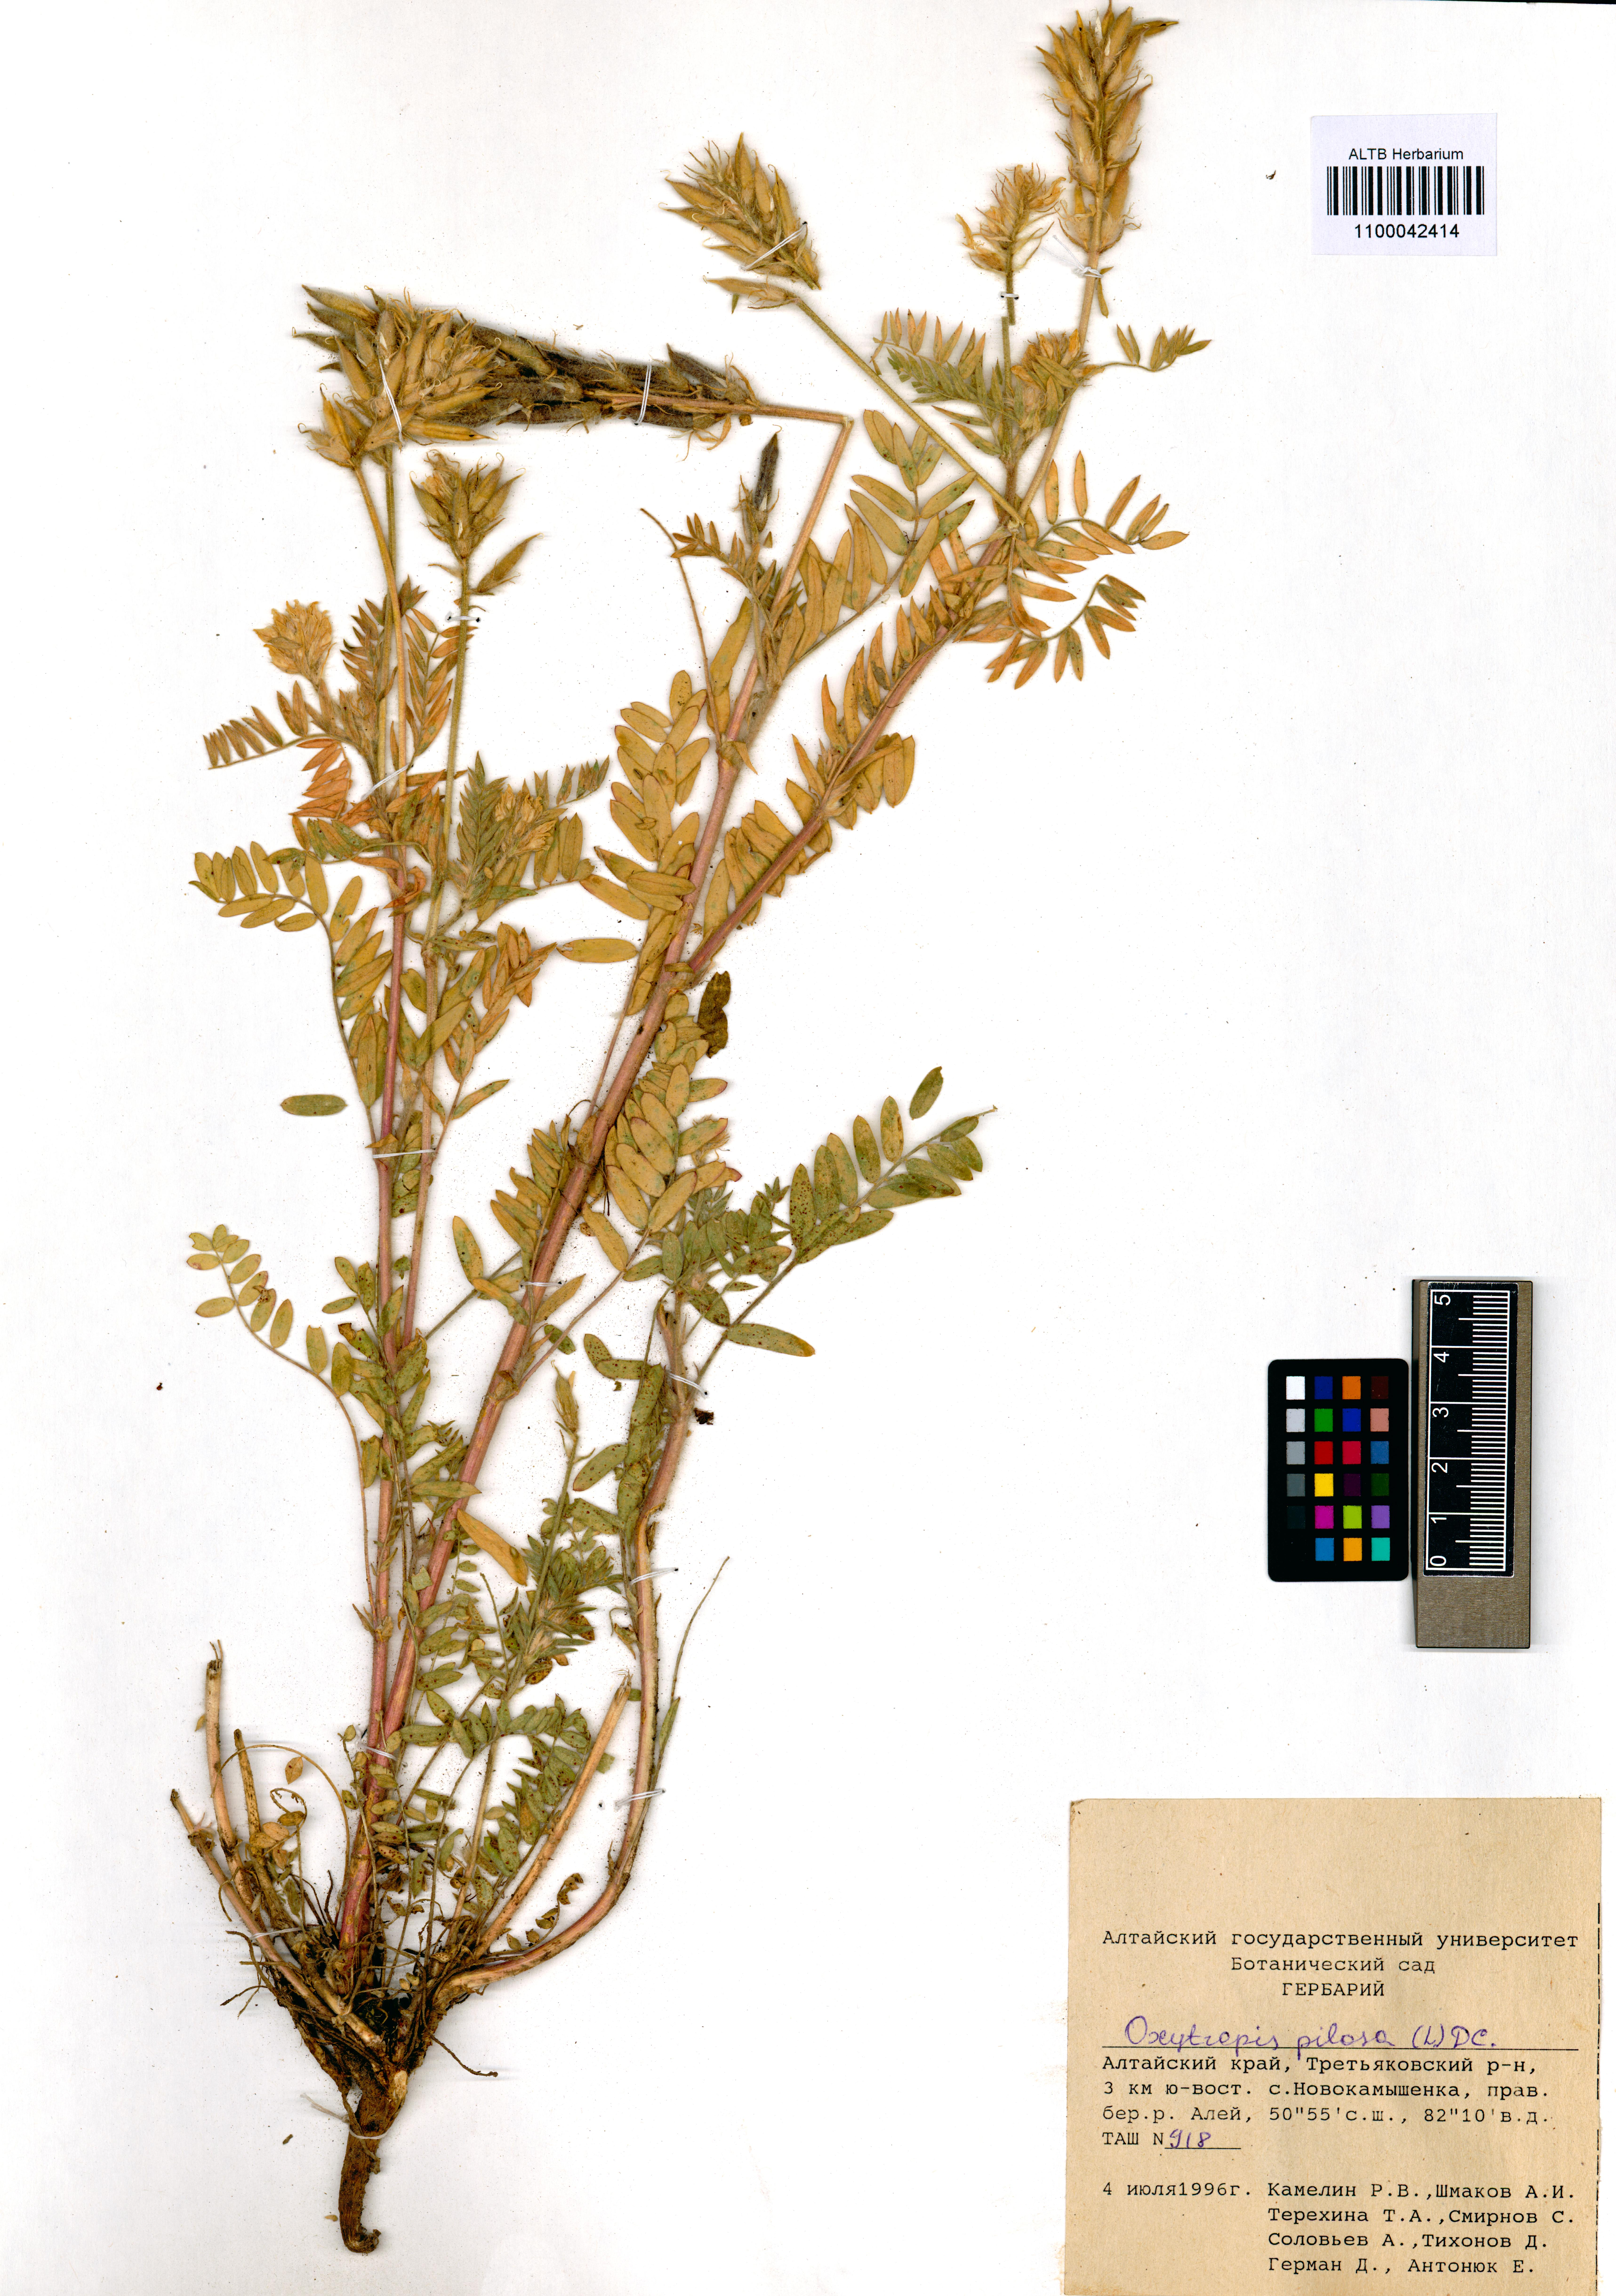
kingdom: Plantae
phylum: Tracheophyta
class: Magnoliopsida
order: Fabales
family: Fabaceae
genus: Oxytropis
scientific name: Oxytropis pilosa
